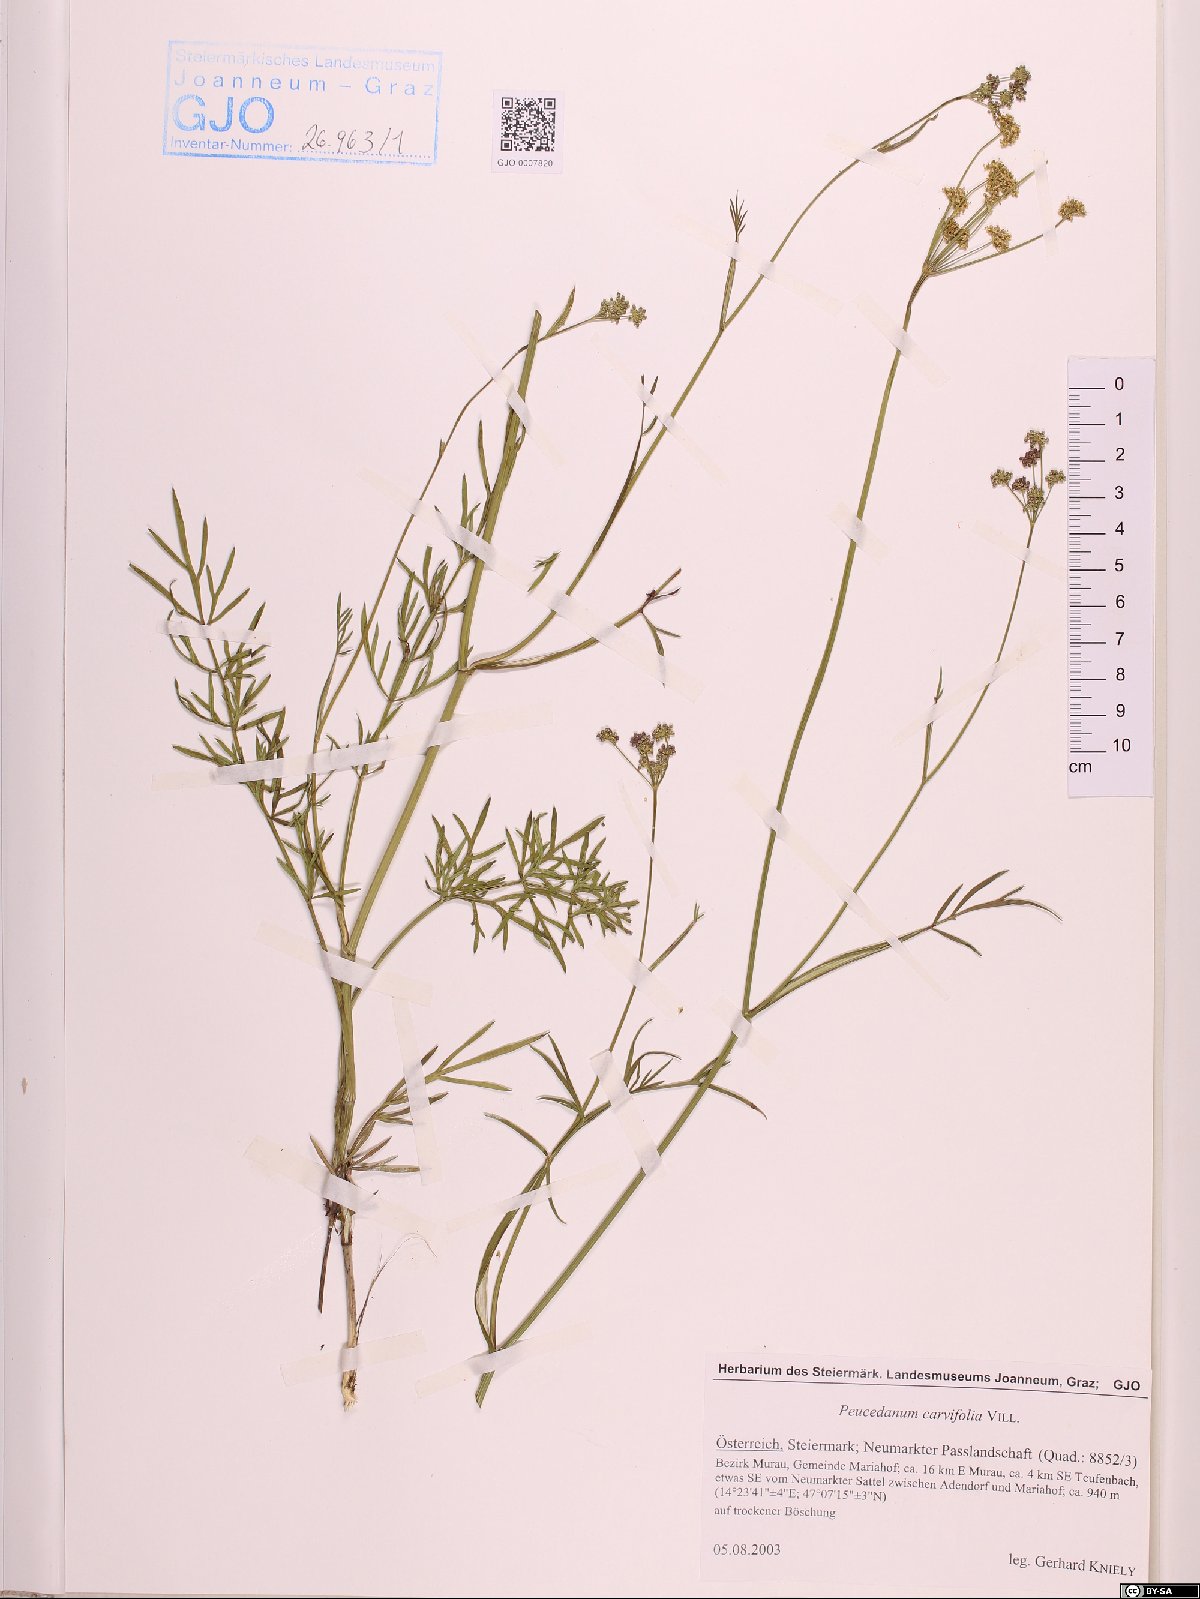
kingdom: Plantae
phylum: Tracheophyta
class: Magnoliopsida
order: Apiales
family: Apiaceae
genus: Dichoropetalum
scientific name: Dichoropetalum carvifolia
